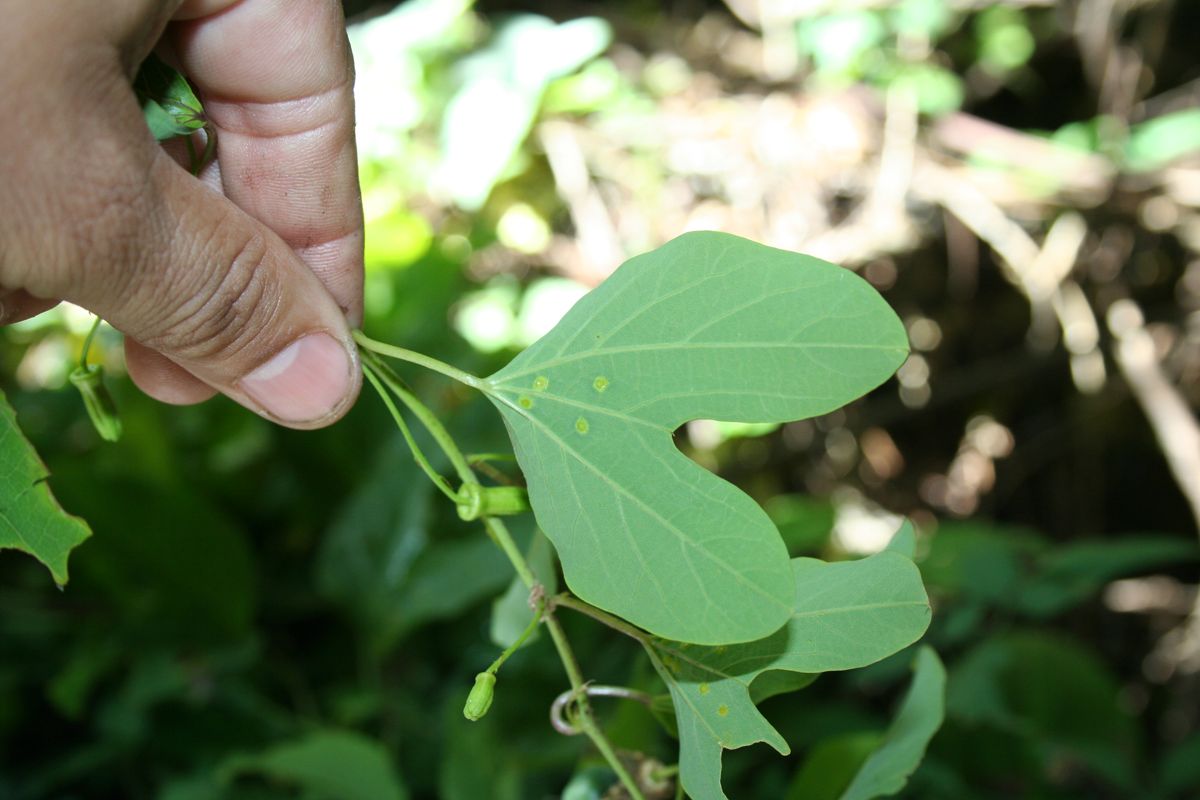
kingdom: Plantae
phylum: Tracheophyta
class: Magnoliopsida
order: Malpighiales
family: Passifloraceae
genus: Passiflora
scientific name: Passiflora jorullensis
